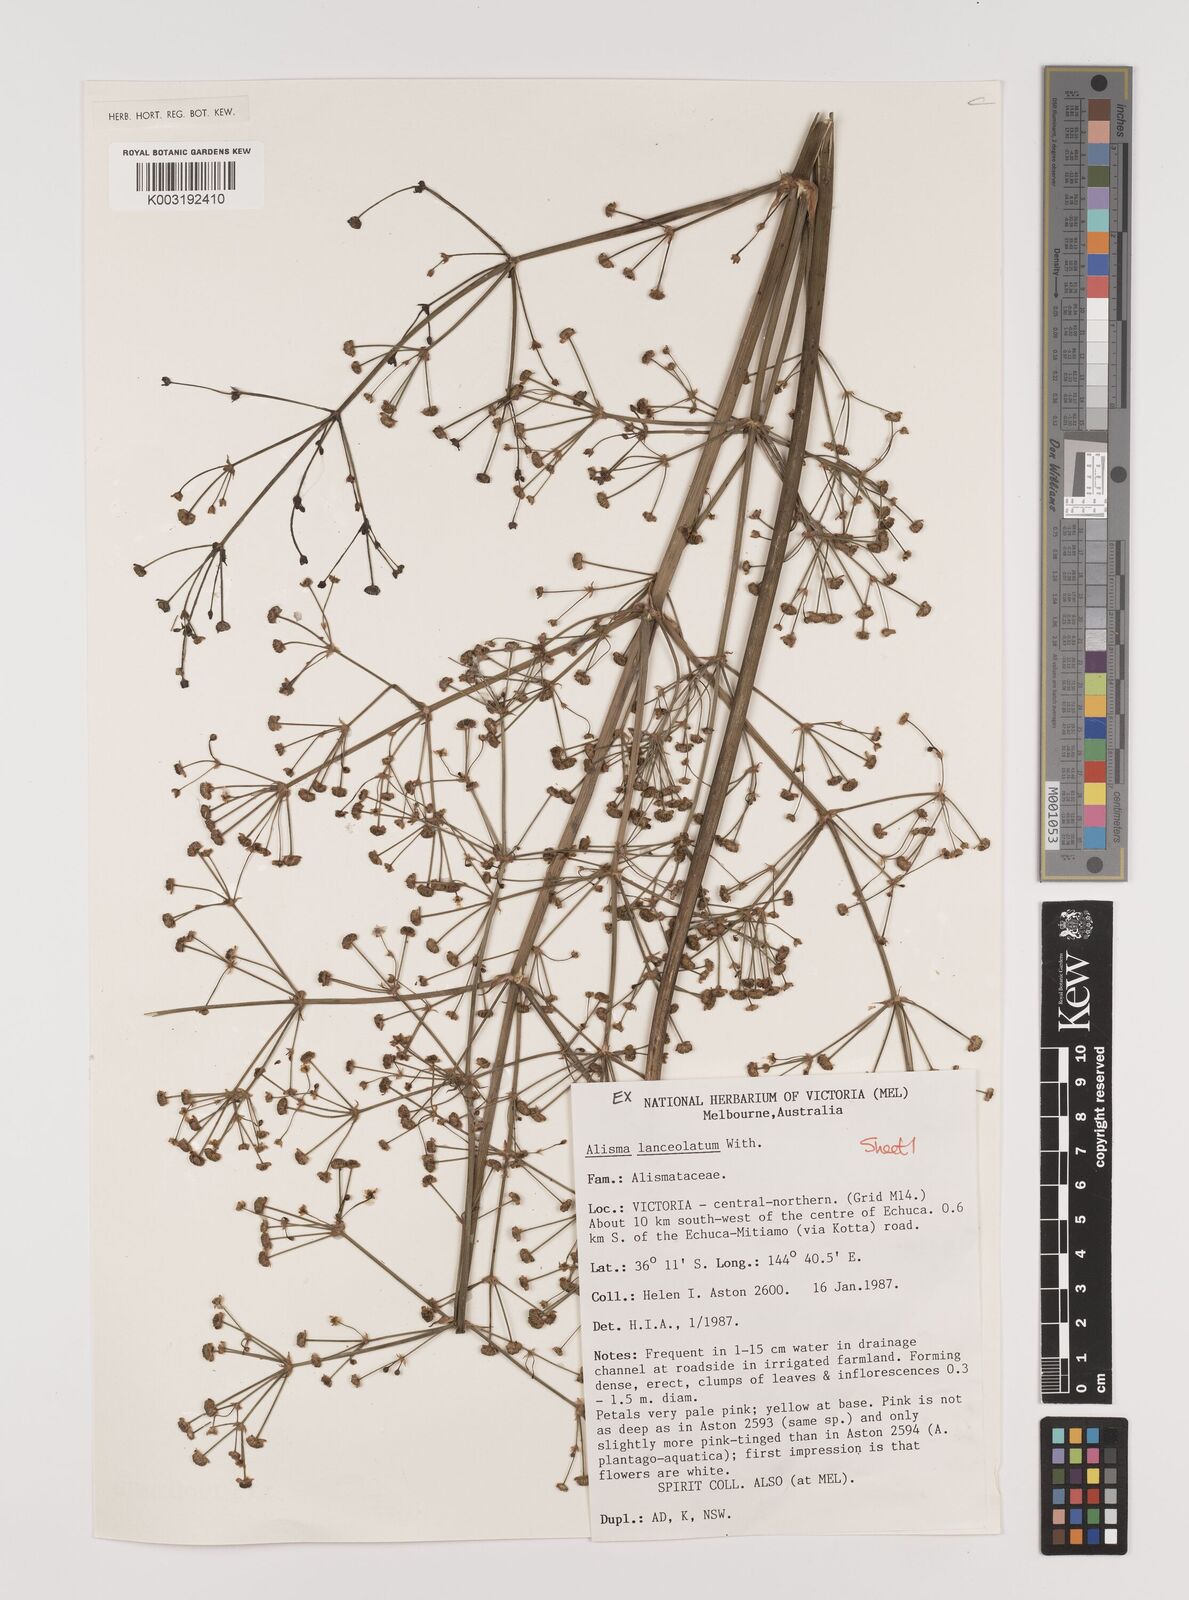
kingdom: Plantae
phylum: Tracheophyta
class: Liliopsida
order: Alismatales
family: Alismataceae
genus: Alisma
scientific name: Alisma lanceolatum
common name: Narrow-leaved water-plantain
